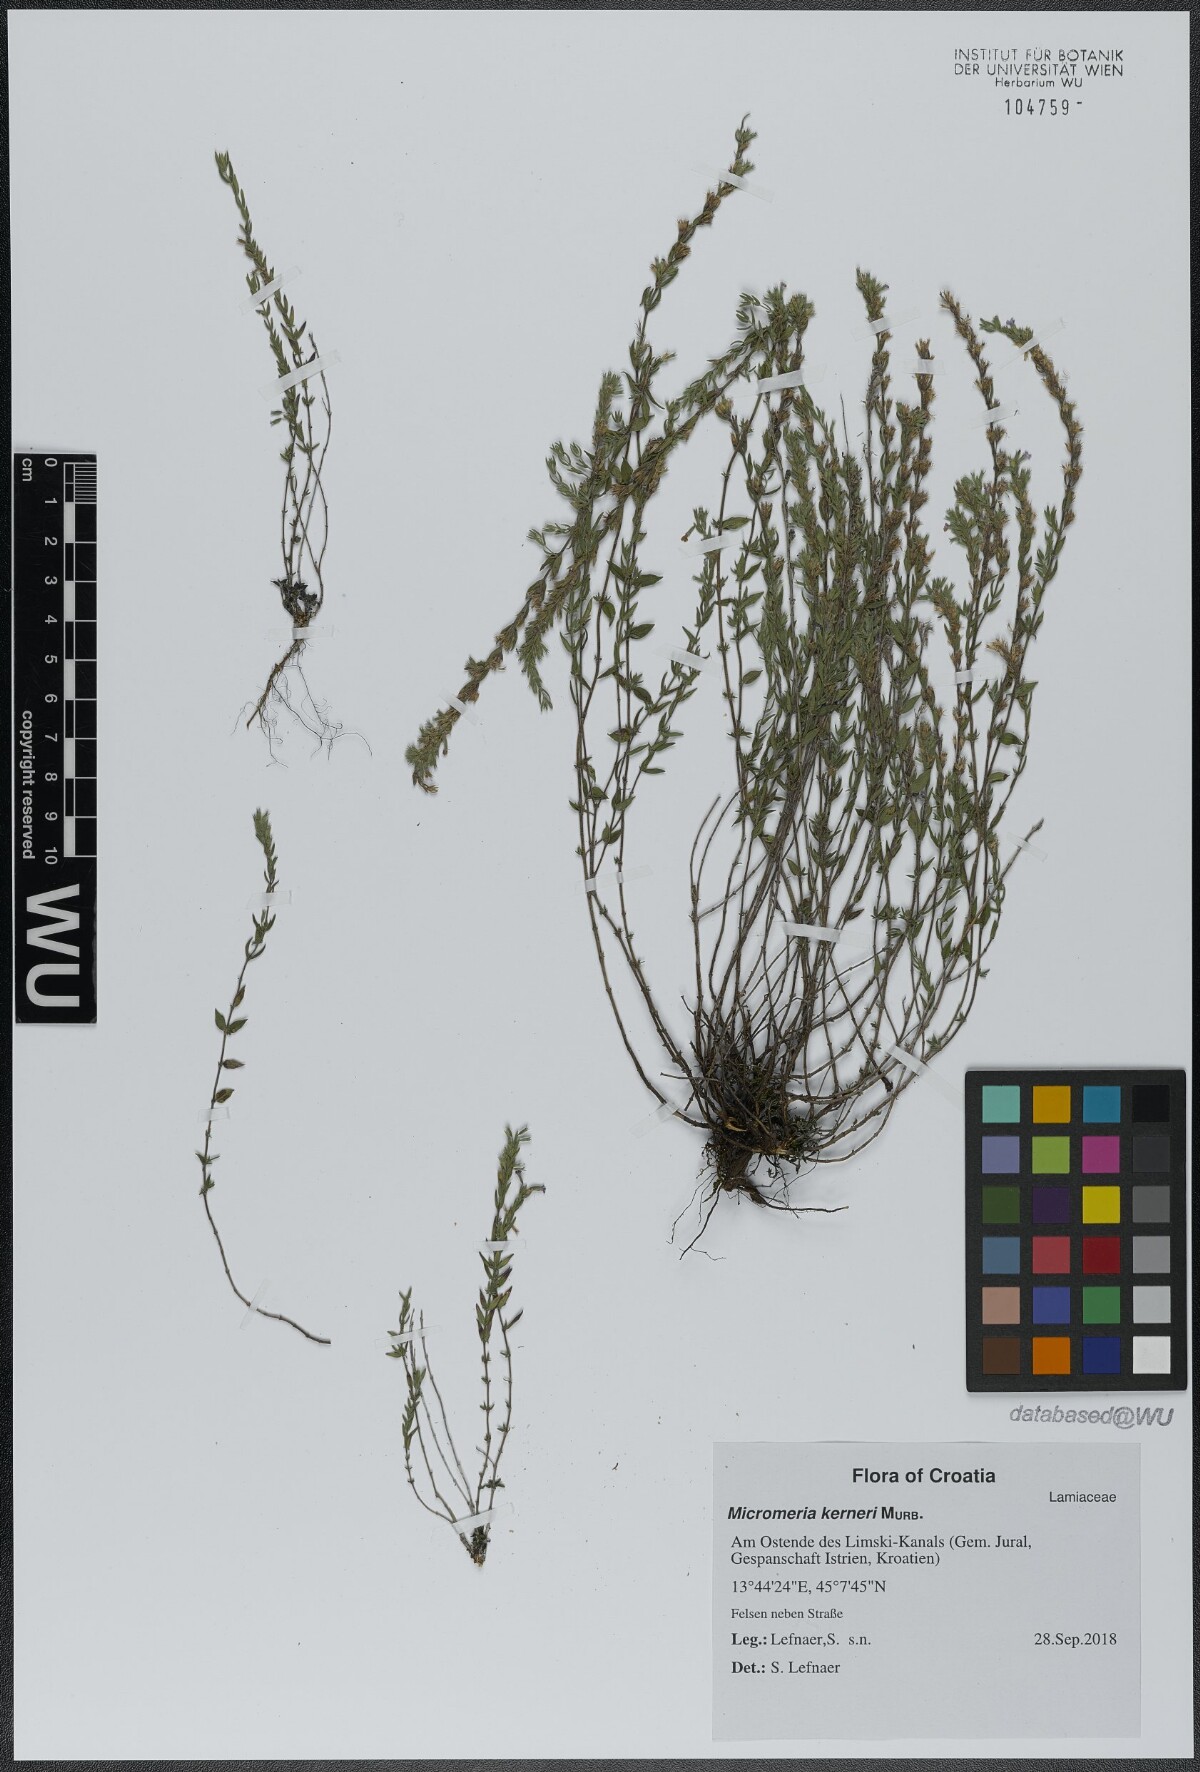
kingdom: Plantae
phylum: Tracheophyta
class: Magnoliopsida
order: Lamiales
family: Lamiaceae
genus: Micromeria
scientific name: Micromeria kerneri
